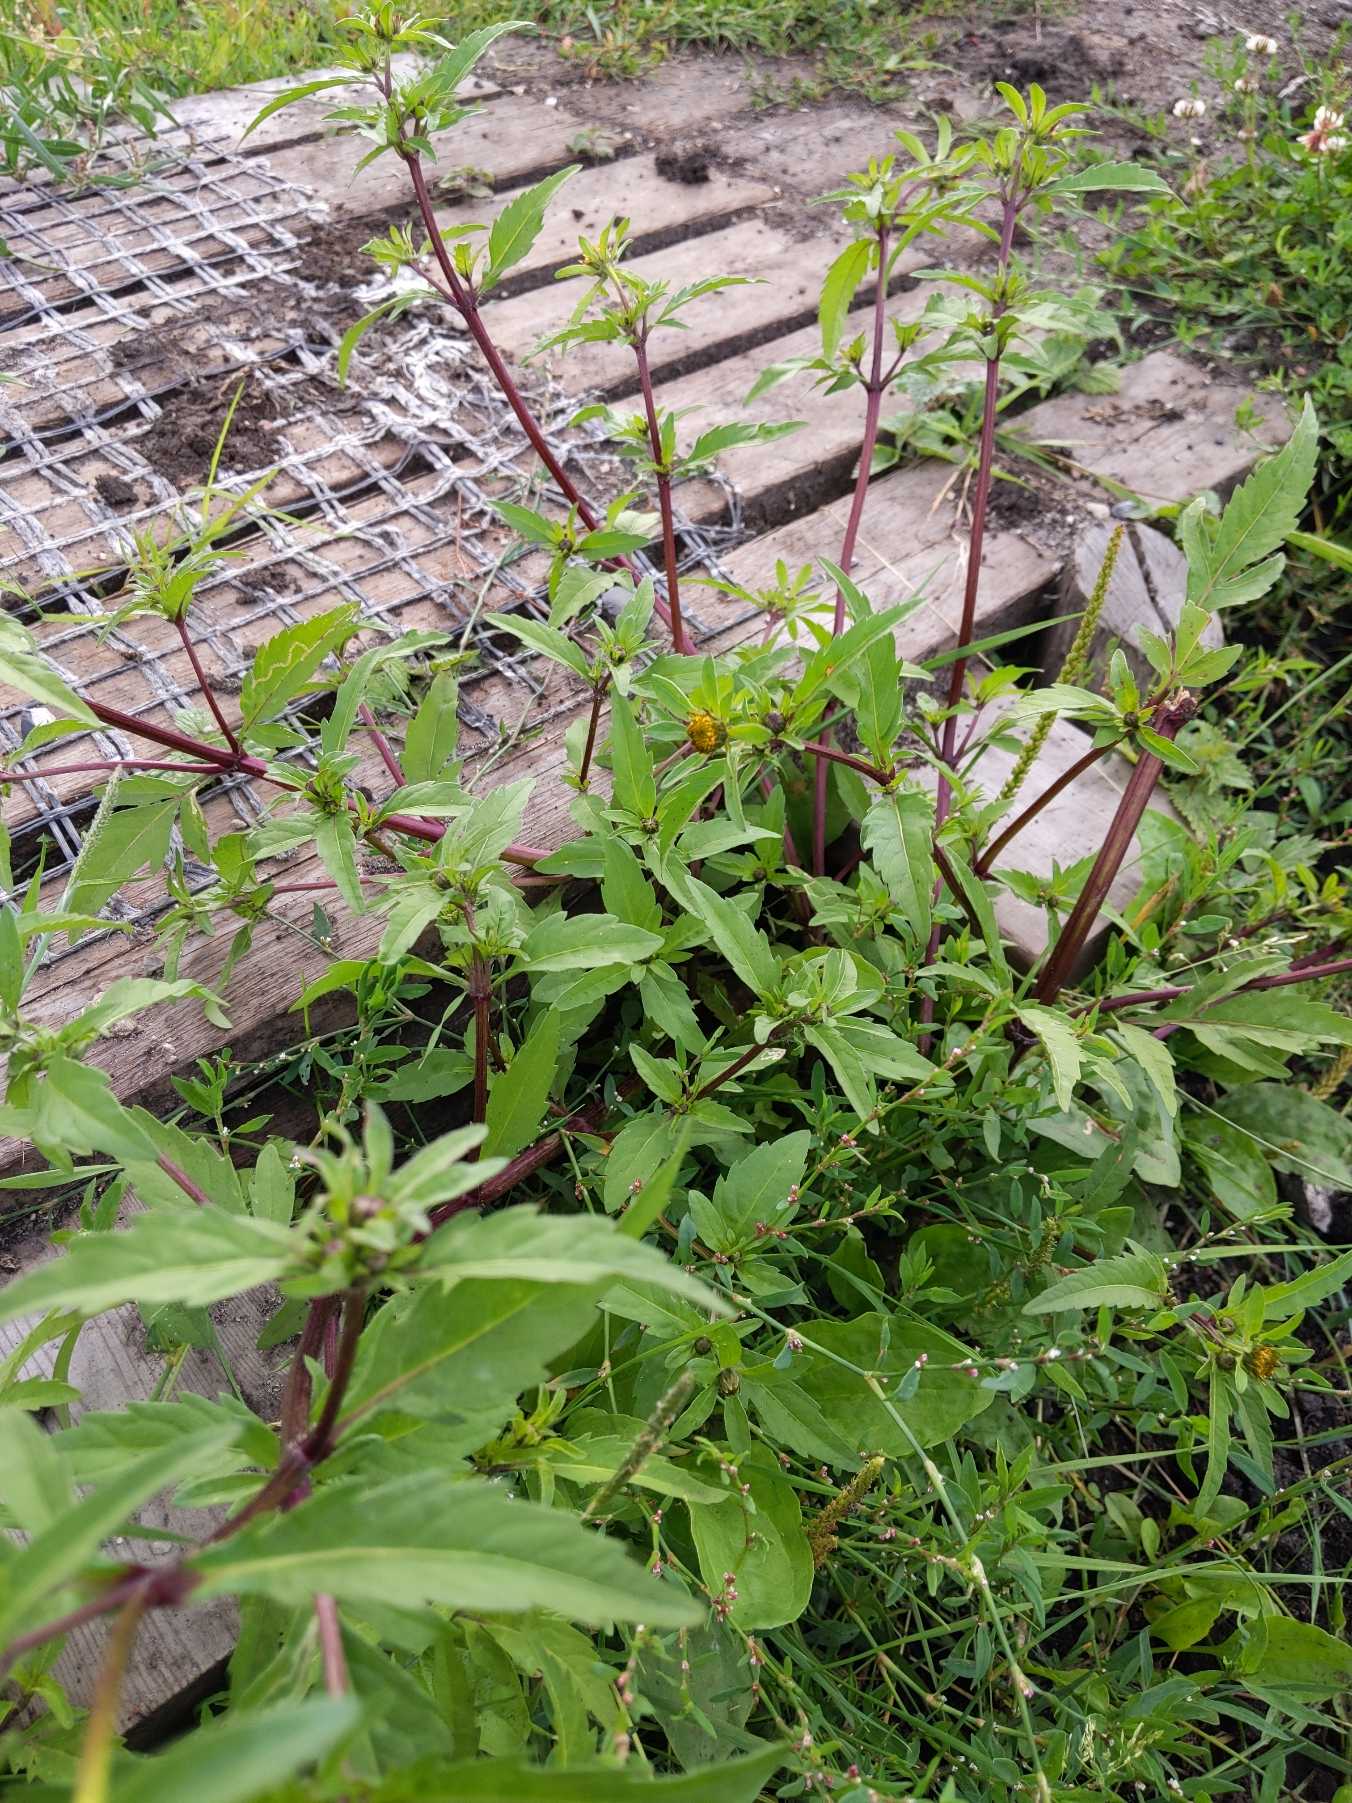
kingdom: Plantae
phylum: Tracheophyta
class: Magnoliopsida
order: Asterales
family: Asteraceae
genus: Bidens
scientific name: Bidens tripartita
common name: Fliget brøndsel
